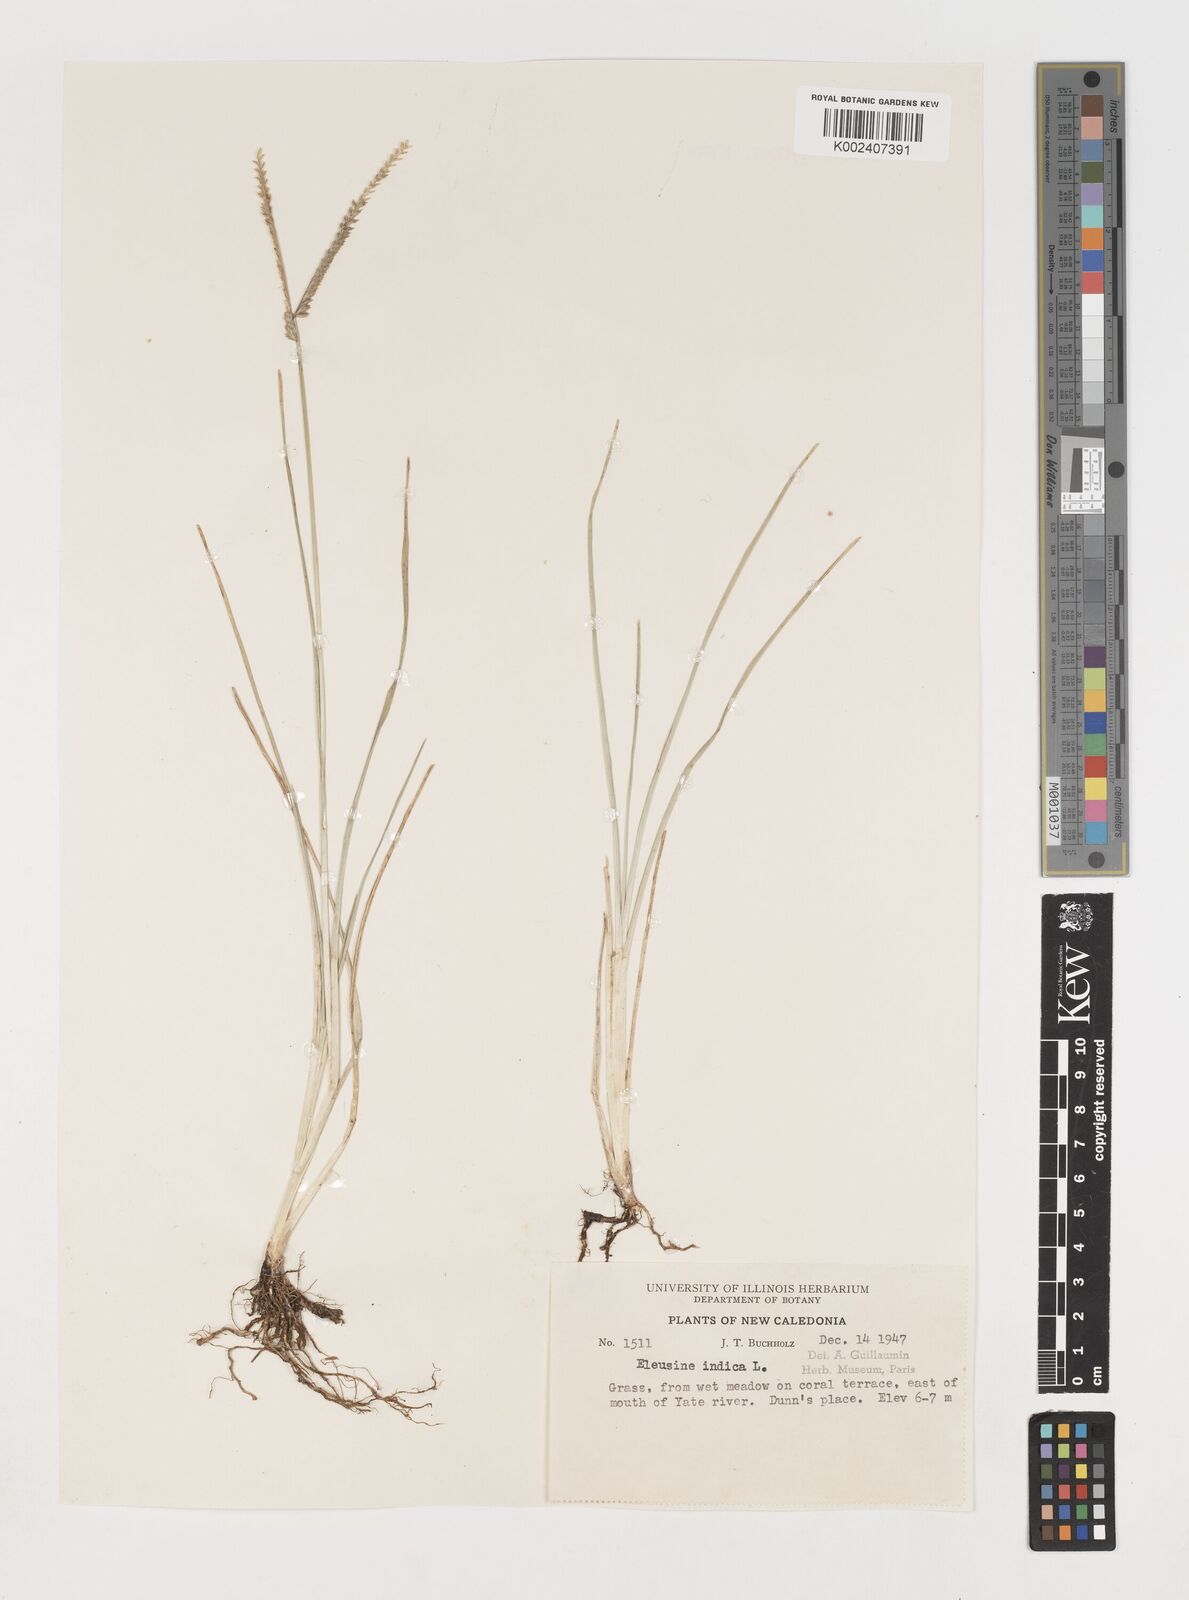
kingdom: Plantae
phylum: Tracheophyta
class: Liliopsida
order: Poales
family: Poaceae
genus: Eleusine
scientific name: Eleusine indica
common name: Yard-grass
